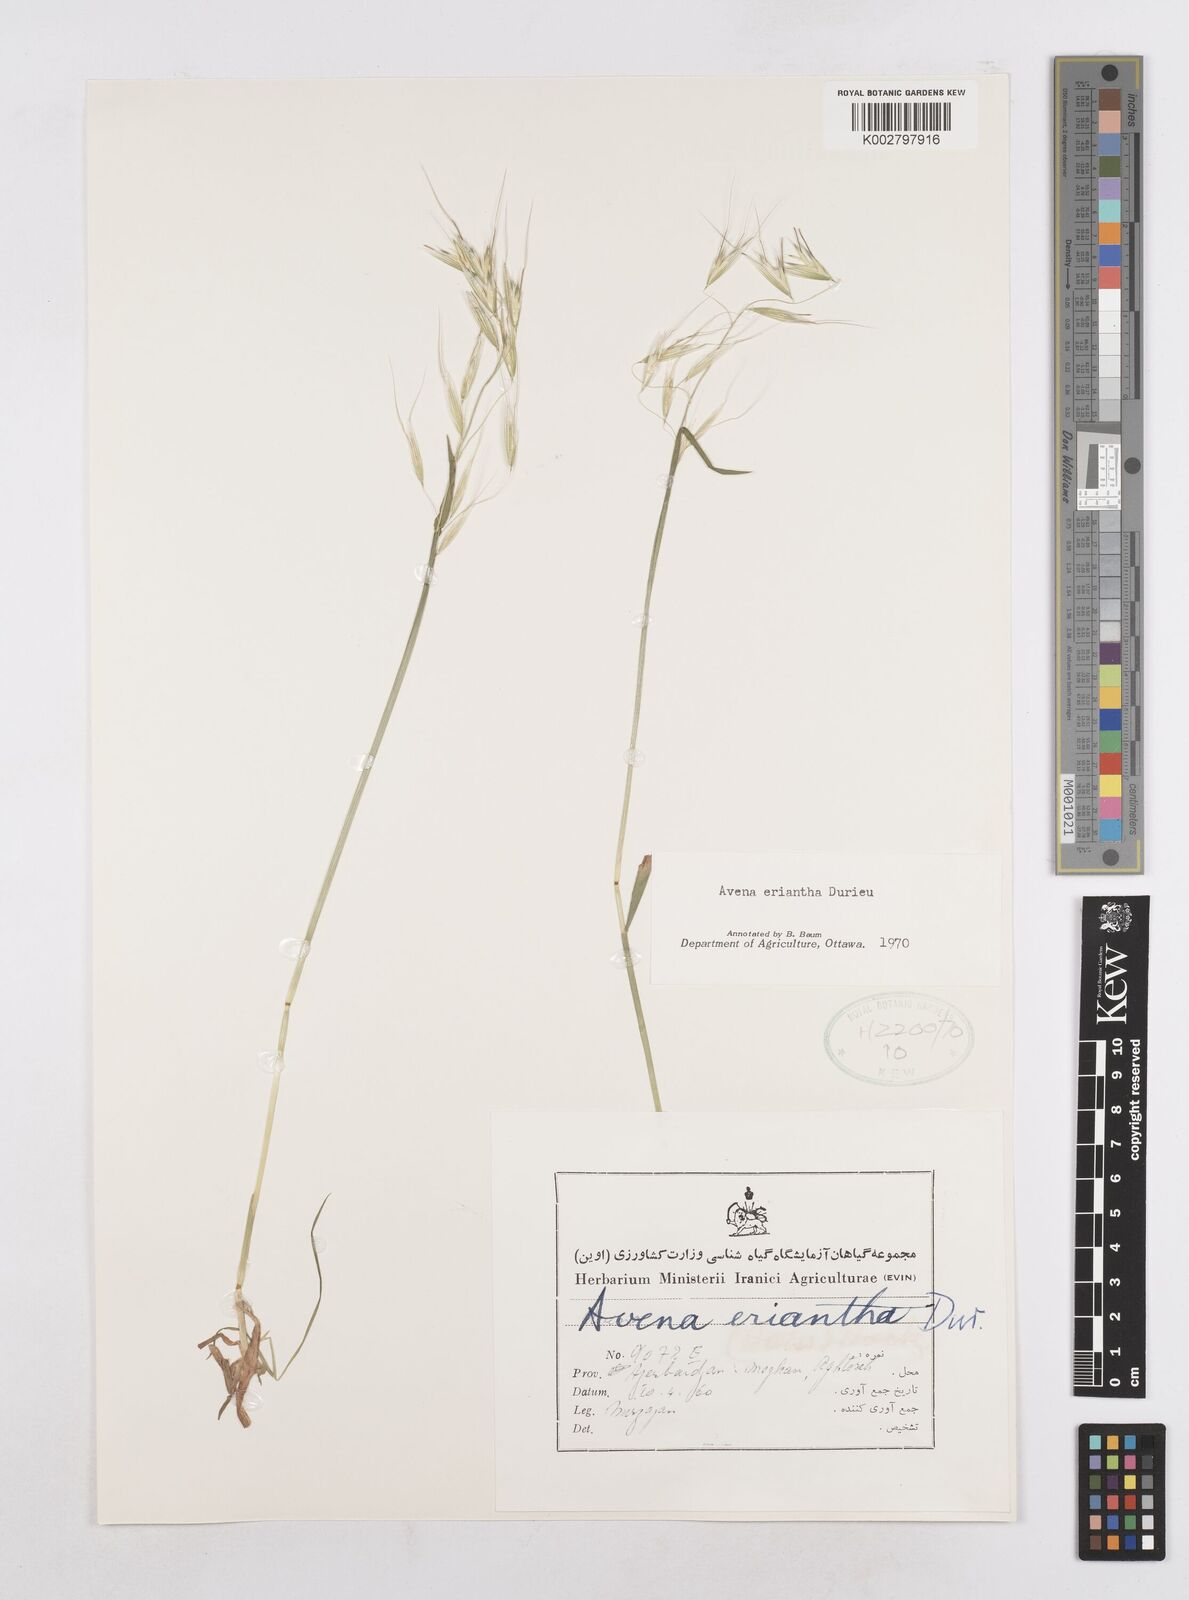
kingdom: Plantae
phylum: Tracheophyta
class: Liliopsida
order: Poales
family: Poaceae
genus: Avena
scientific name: Avena eriantha
